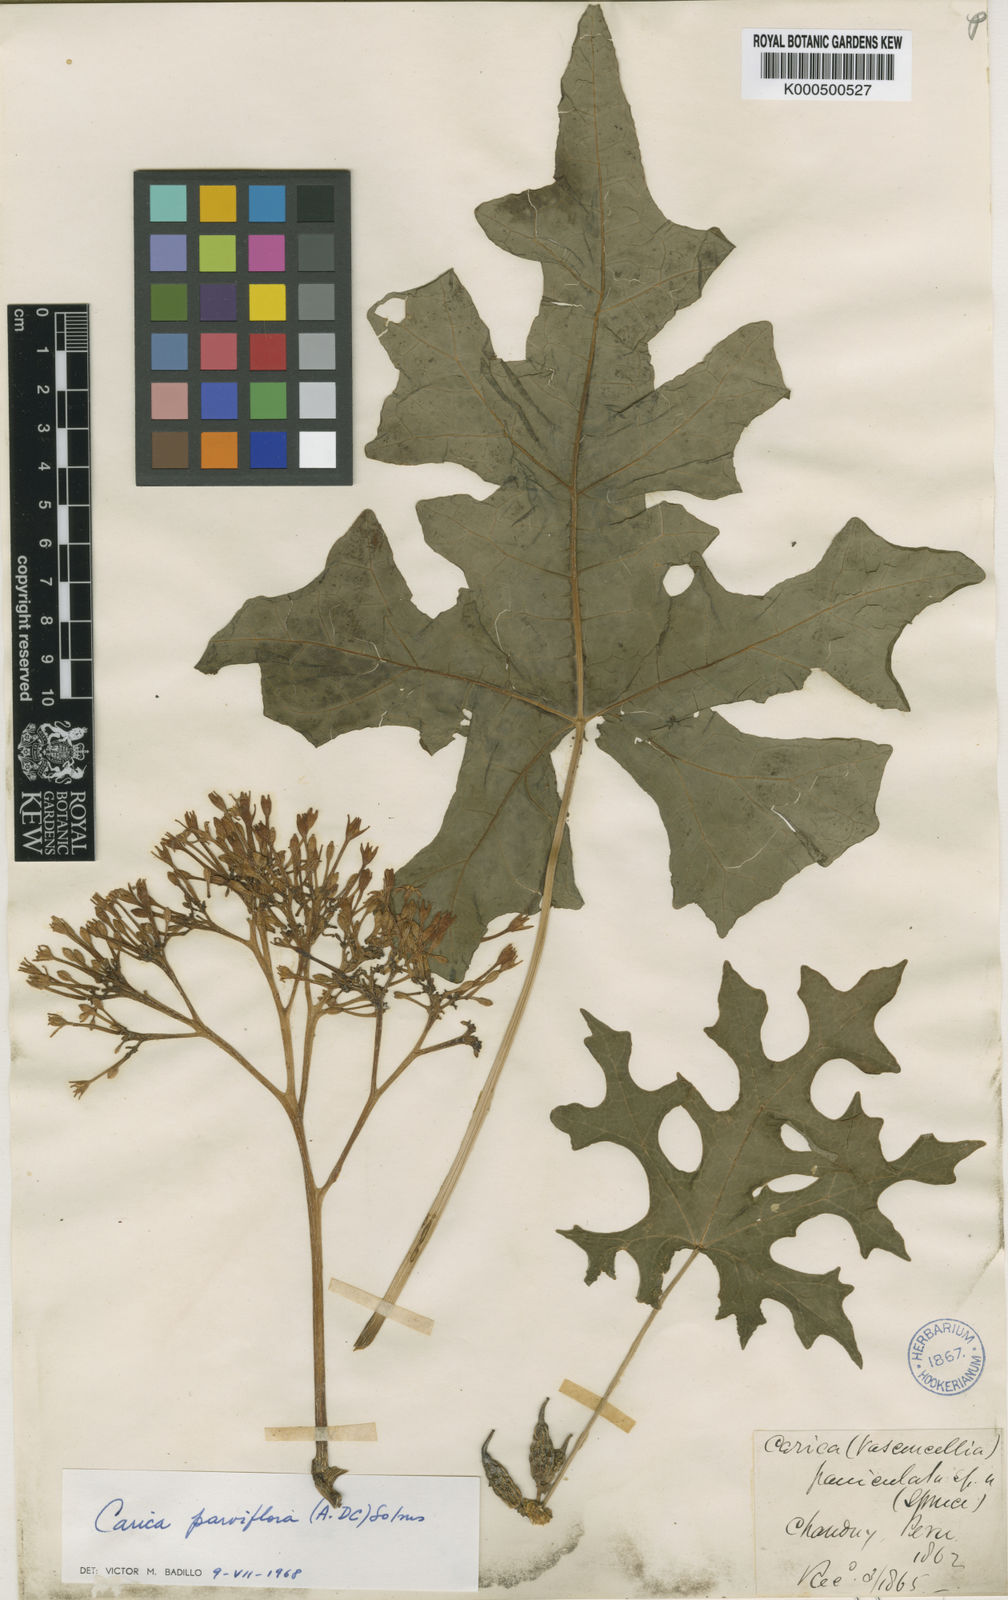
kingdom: Plantae
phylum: Tracheophyta
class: Magnoliopsida
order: Brassicales
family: Caricaceae
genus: Vasconcellea
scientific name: Vasconcellea parviflora
